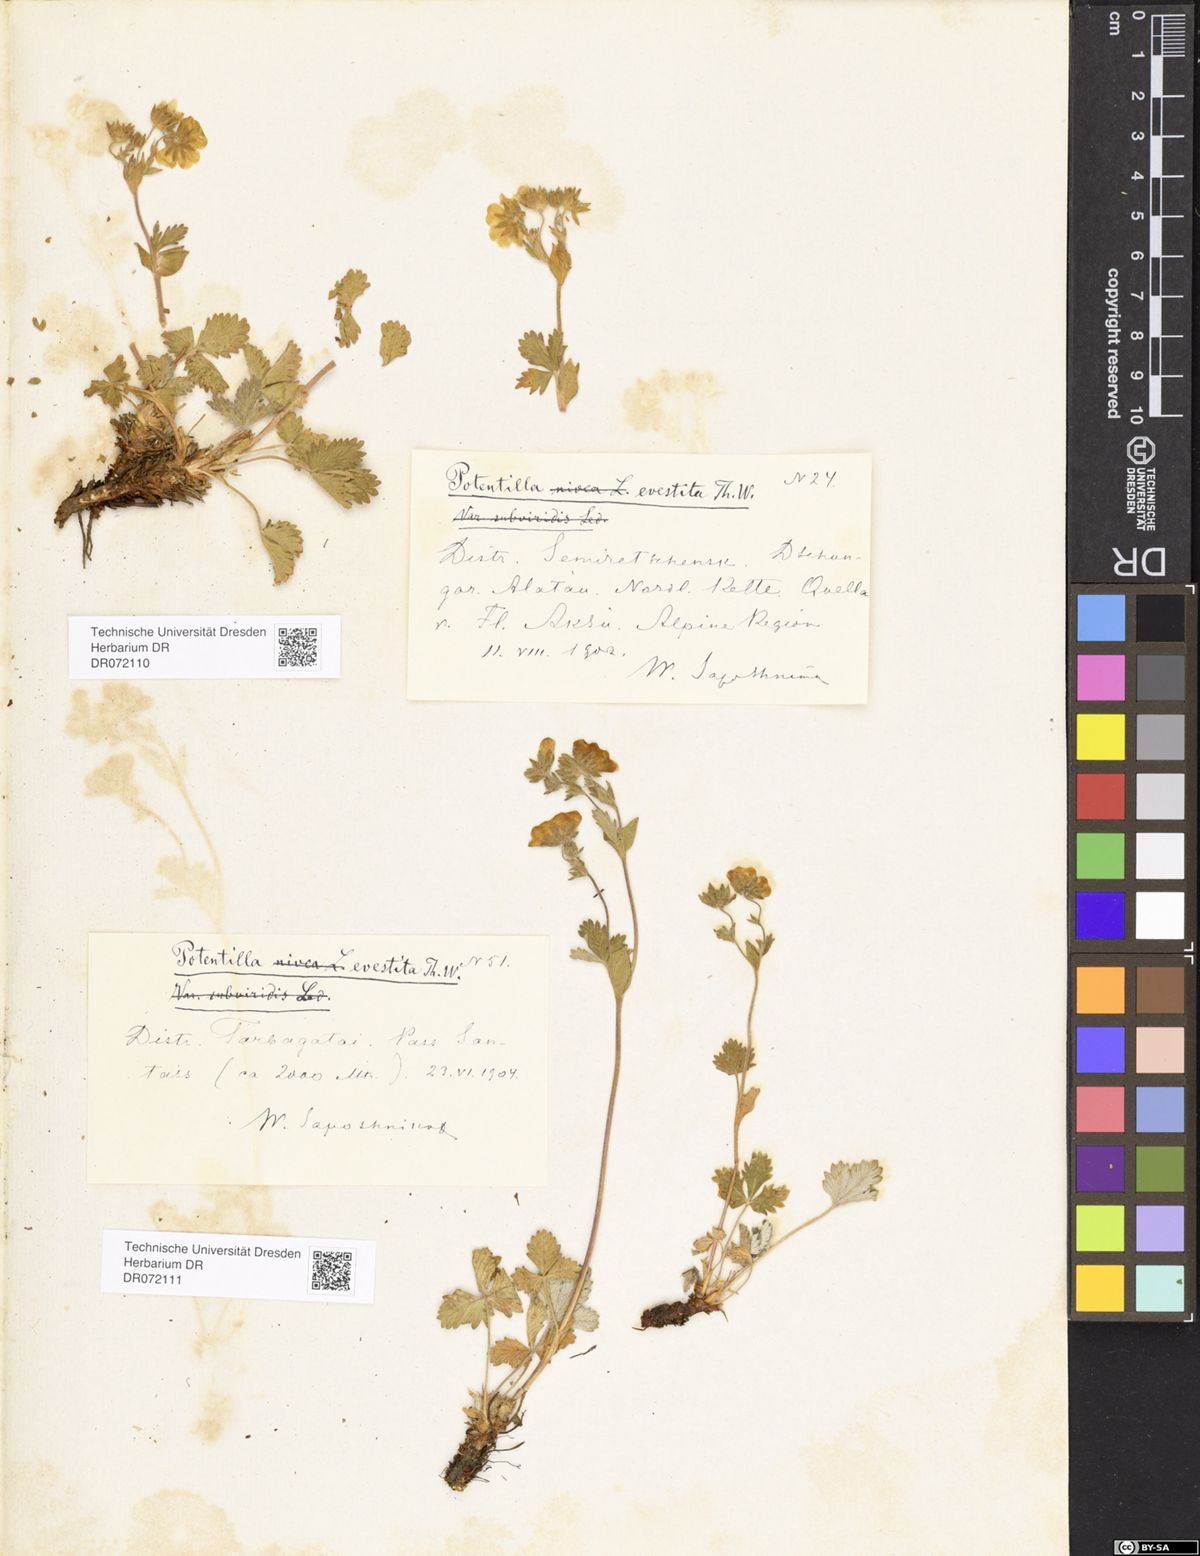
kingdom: Plantae
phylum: Tracheophyta
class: Magnoliopsida
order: Rosales
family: Rosaceae
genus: Potentilla
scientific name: Potentilla evestita
